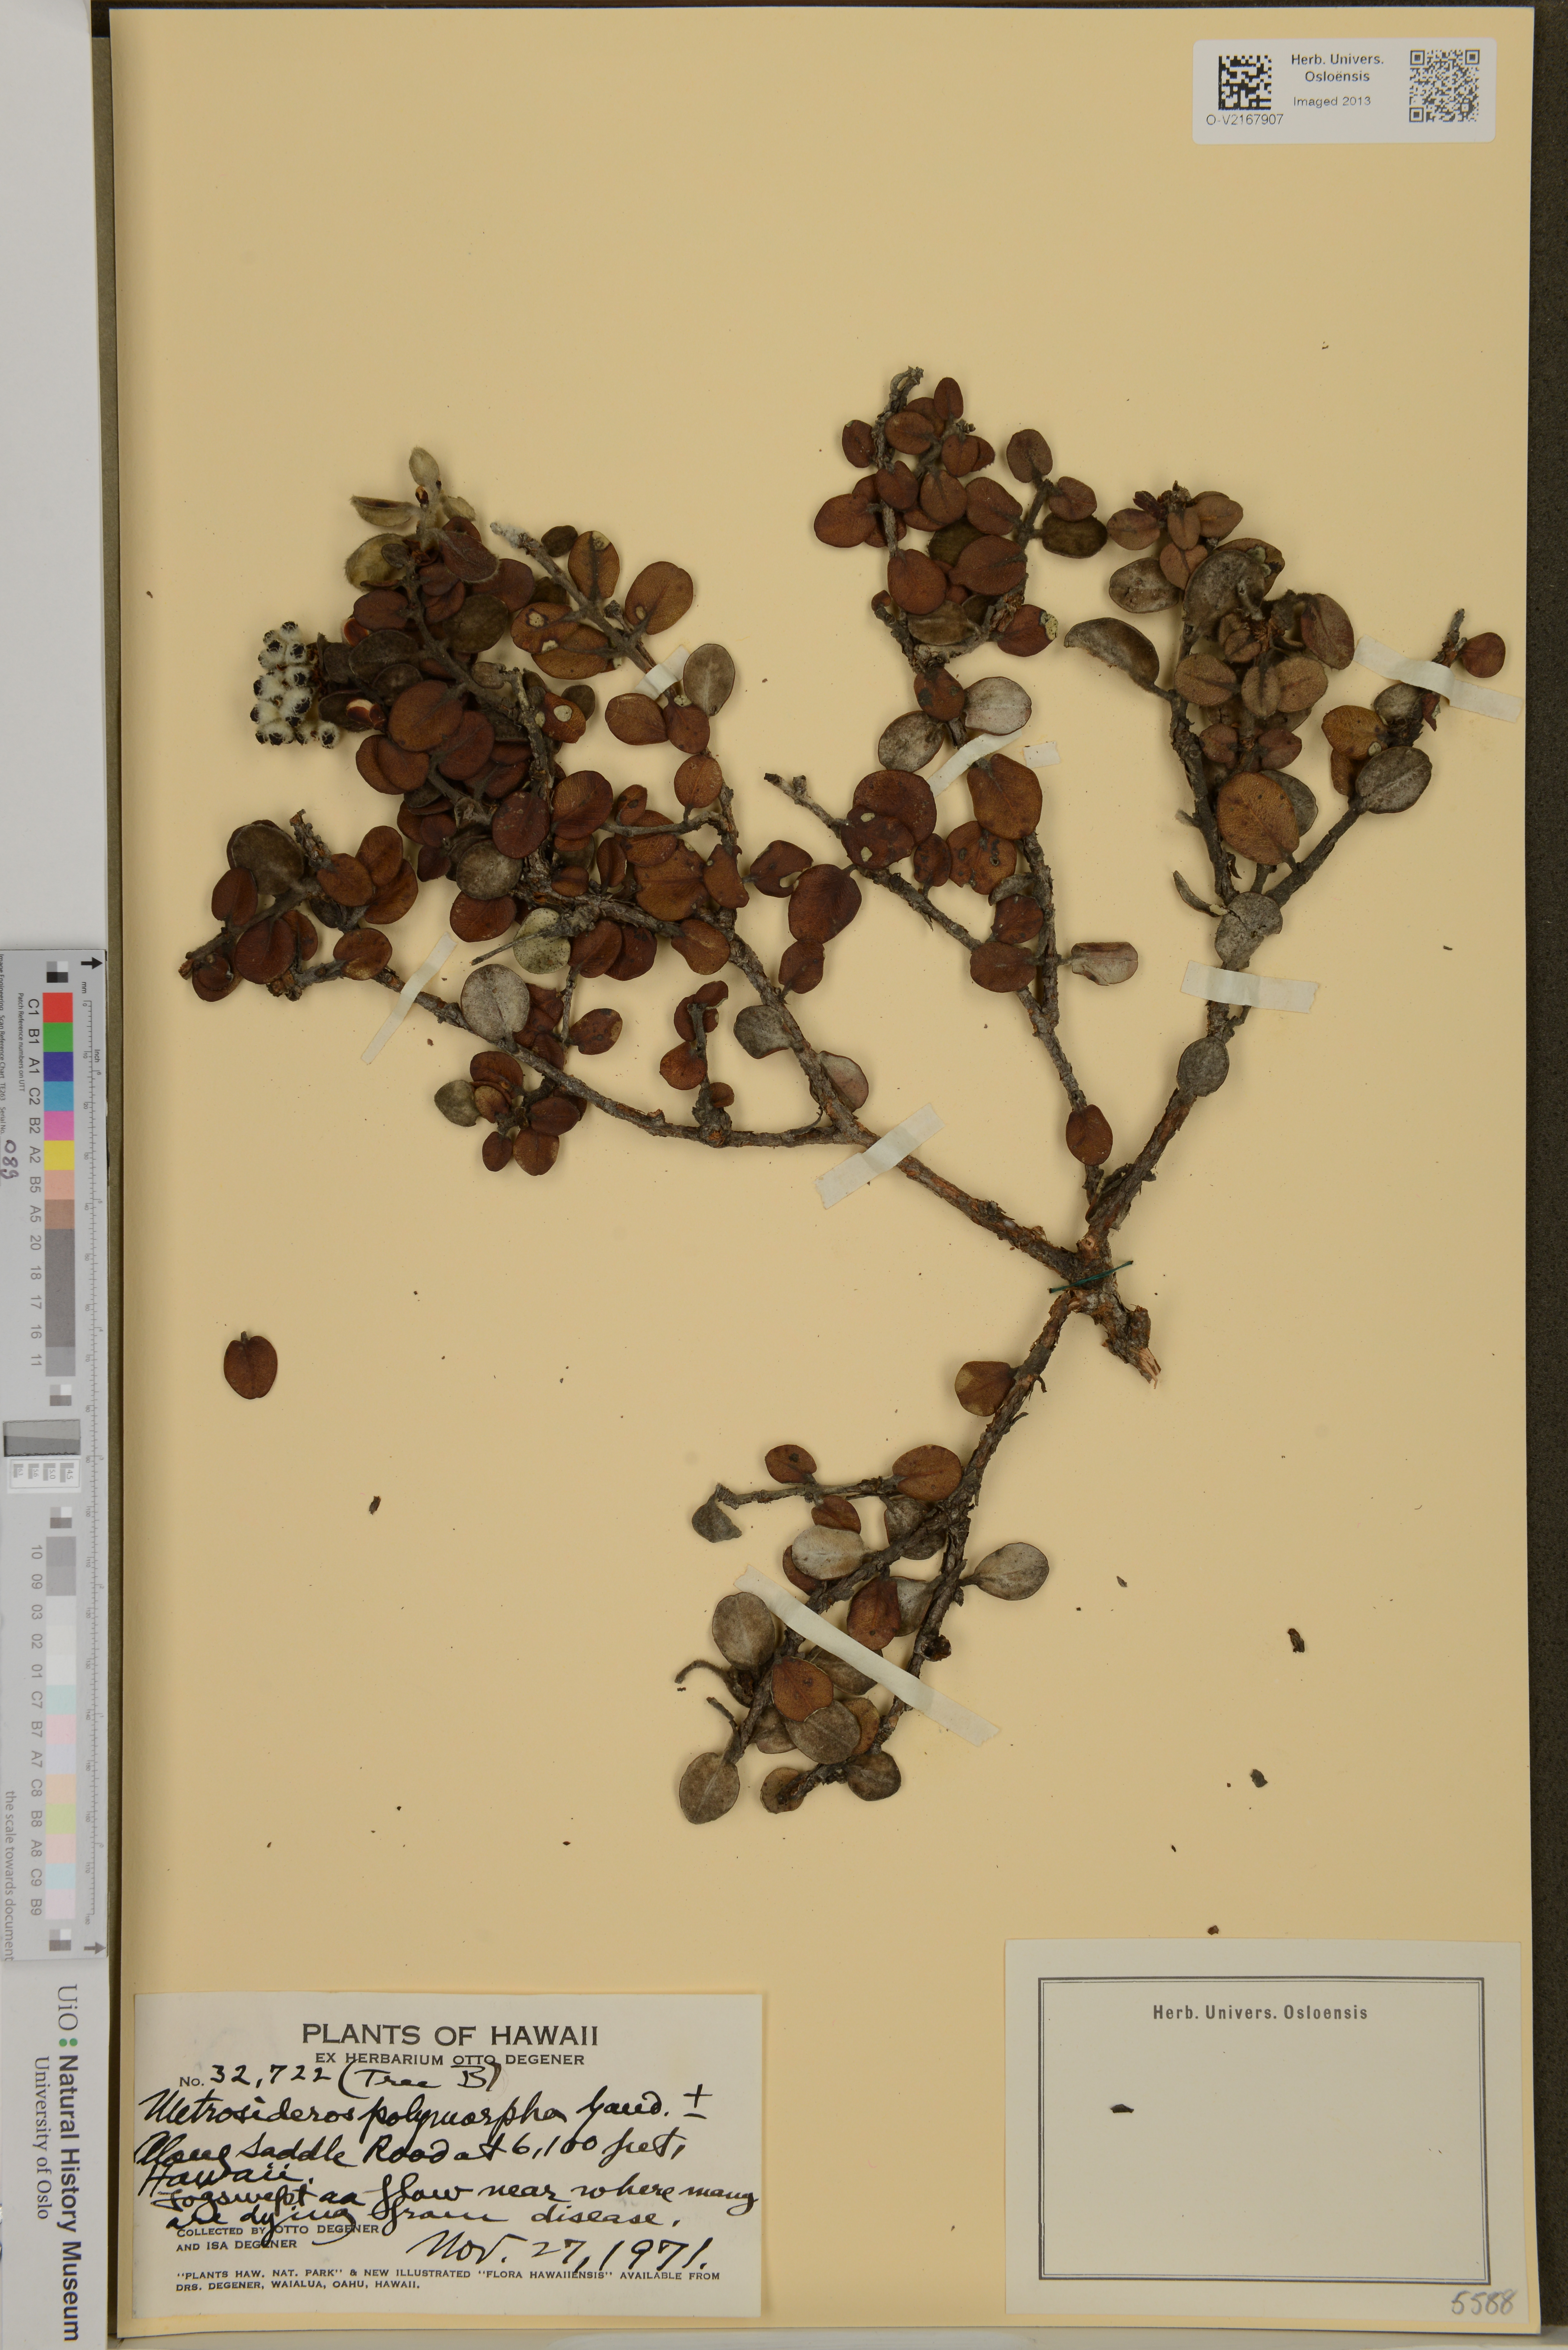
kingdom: Plantae
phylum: Tracheophyta
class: Magnoliopsida
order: Myrtales
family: Myrtaceae
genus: Metrosideros
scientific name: Metrosideros polymorpha
